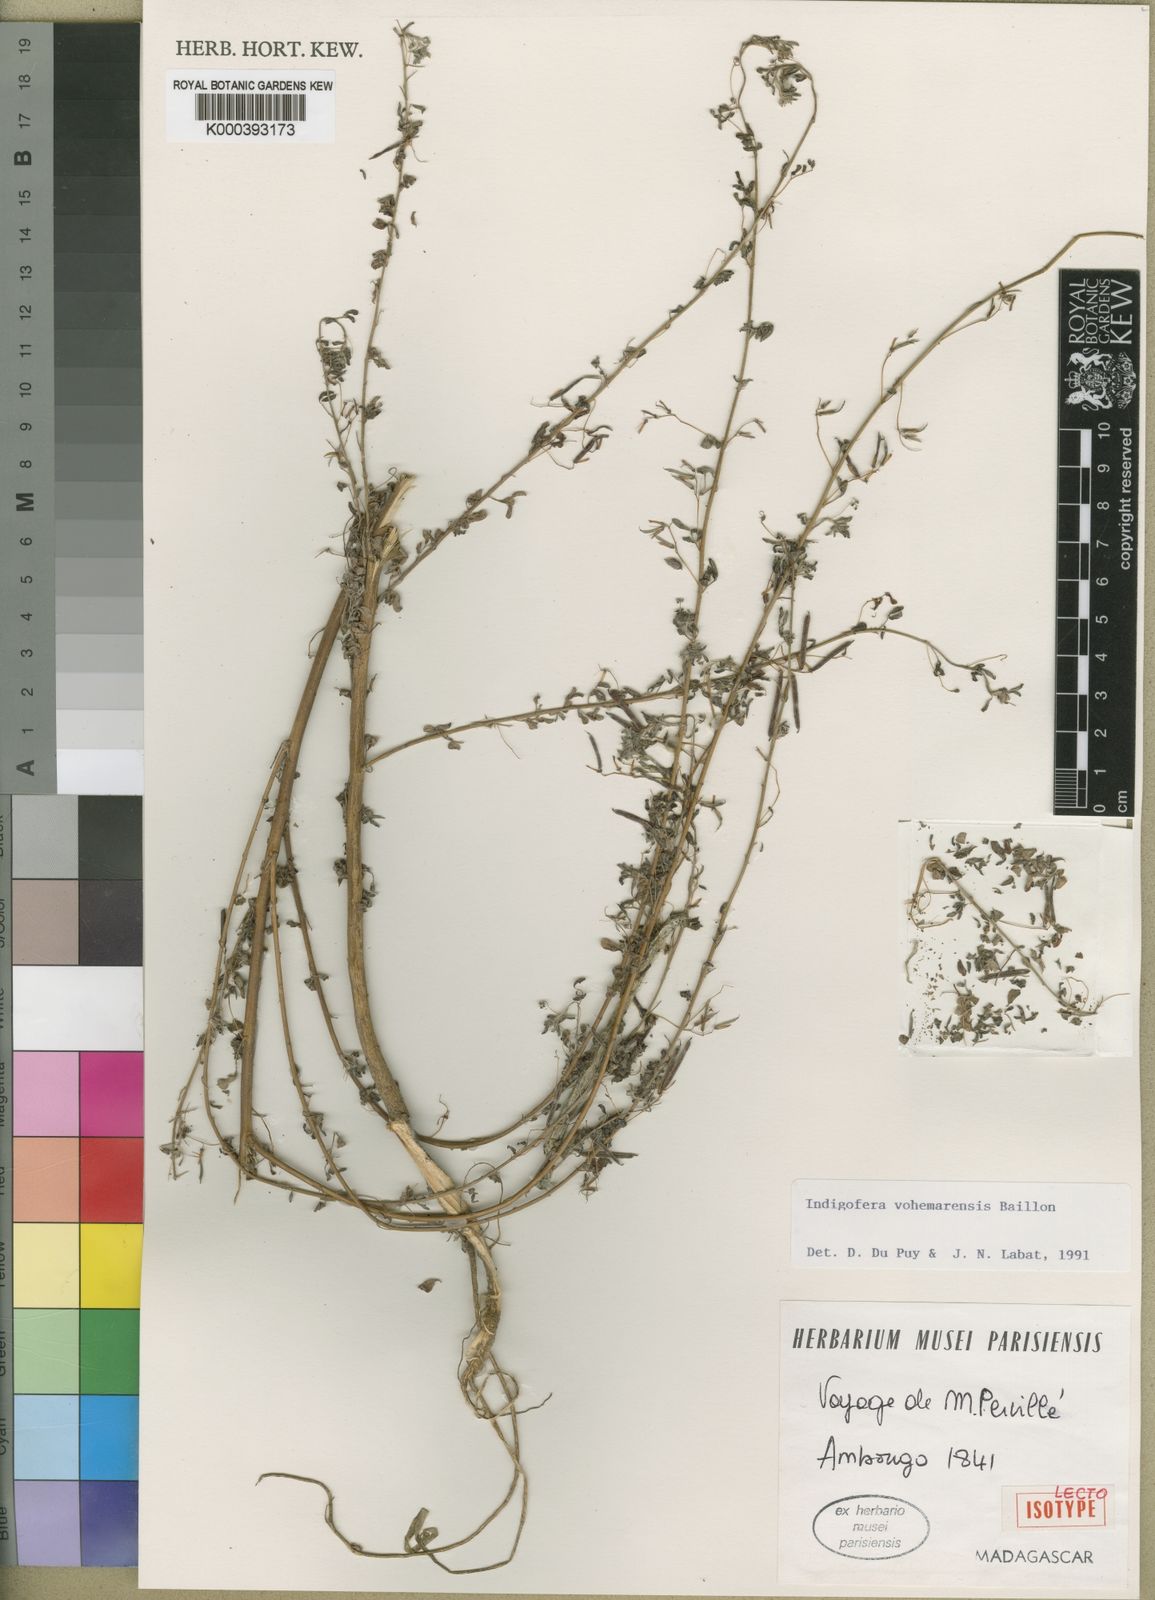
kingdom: Plantae
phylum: Tracheophyta
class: Magnoliopsida
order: Fabales
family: Fabaceae
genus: Indigofera
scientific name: Indigofera vohemarensis
